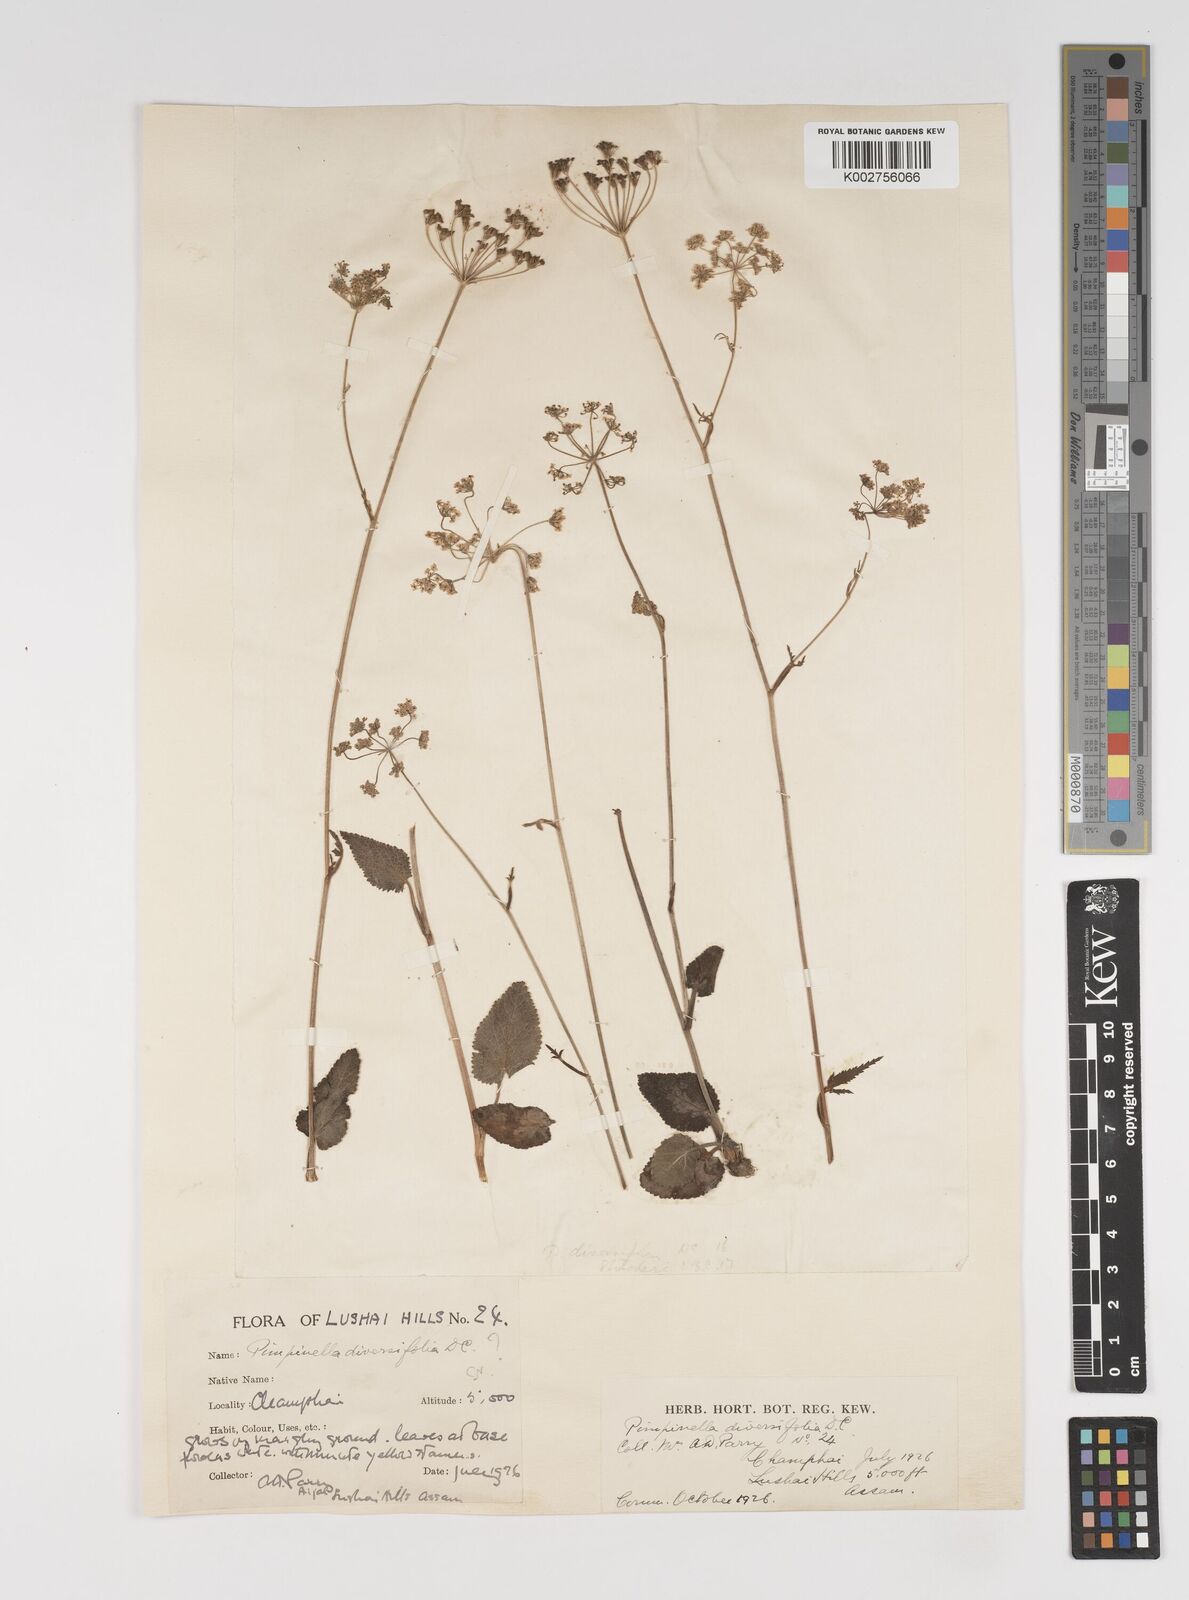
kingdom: Plantae
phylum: Tracheophyta
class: Magnoliopsida
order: Apiales
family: Apiaceae
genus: Pimpinella
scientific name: Pimpinella diversifolia
